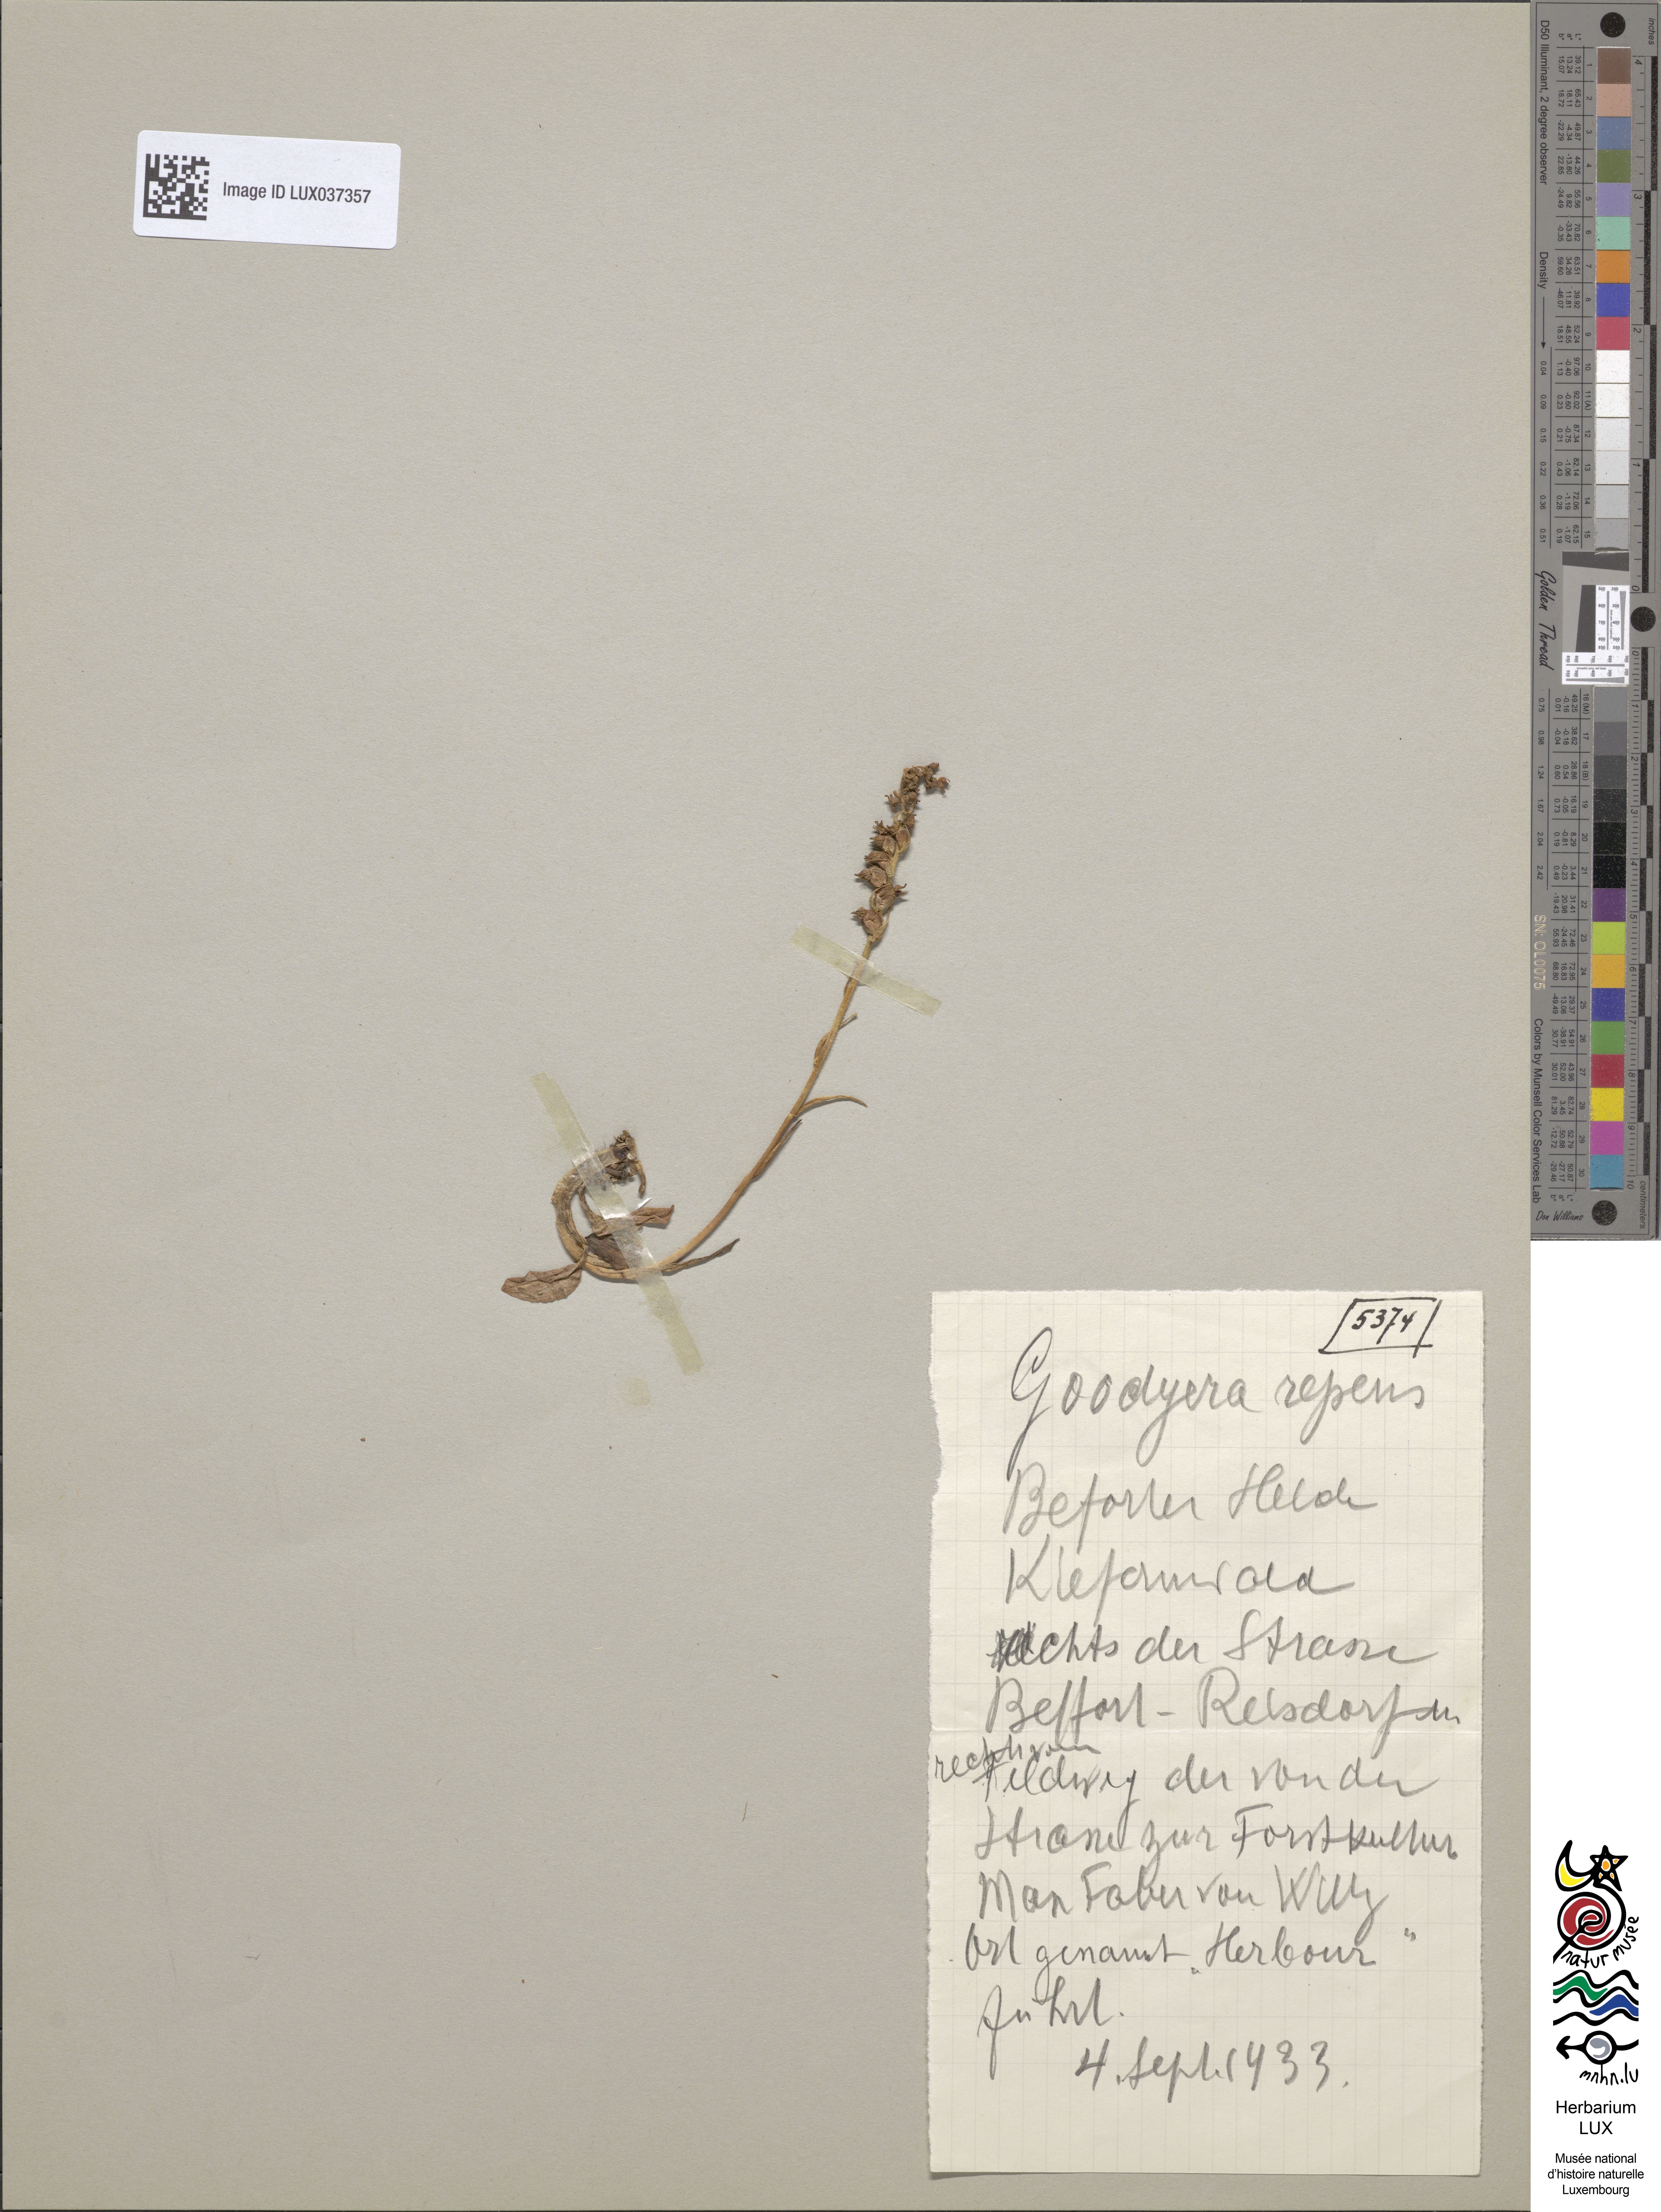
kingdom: Plantae
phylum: Tracheophyta
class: Liliopsida
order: Asparagales
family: Orchidaceae
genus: Goodyera
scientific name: Goodyera repens
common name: Creeping lady's-tresses
